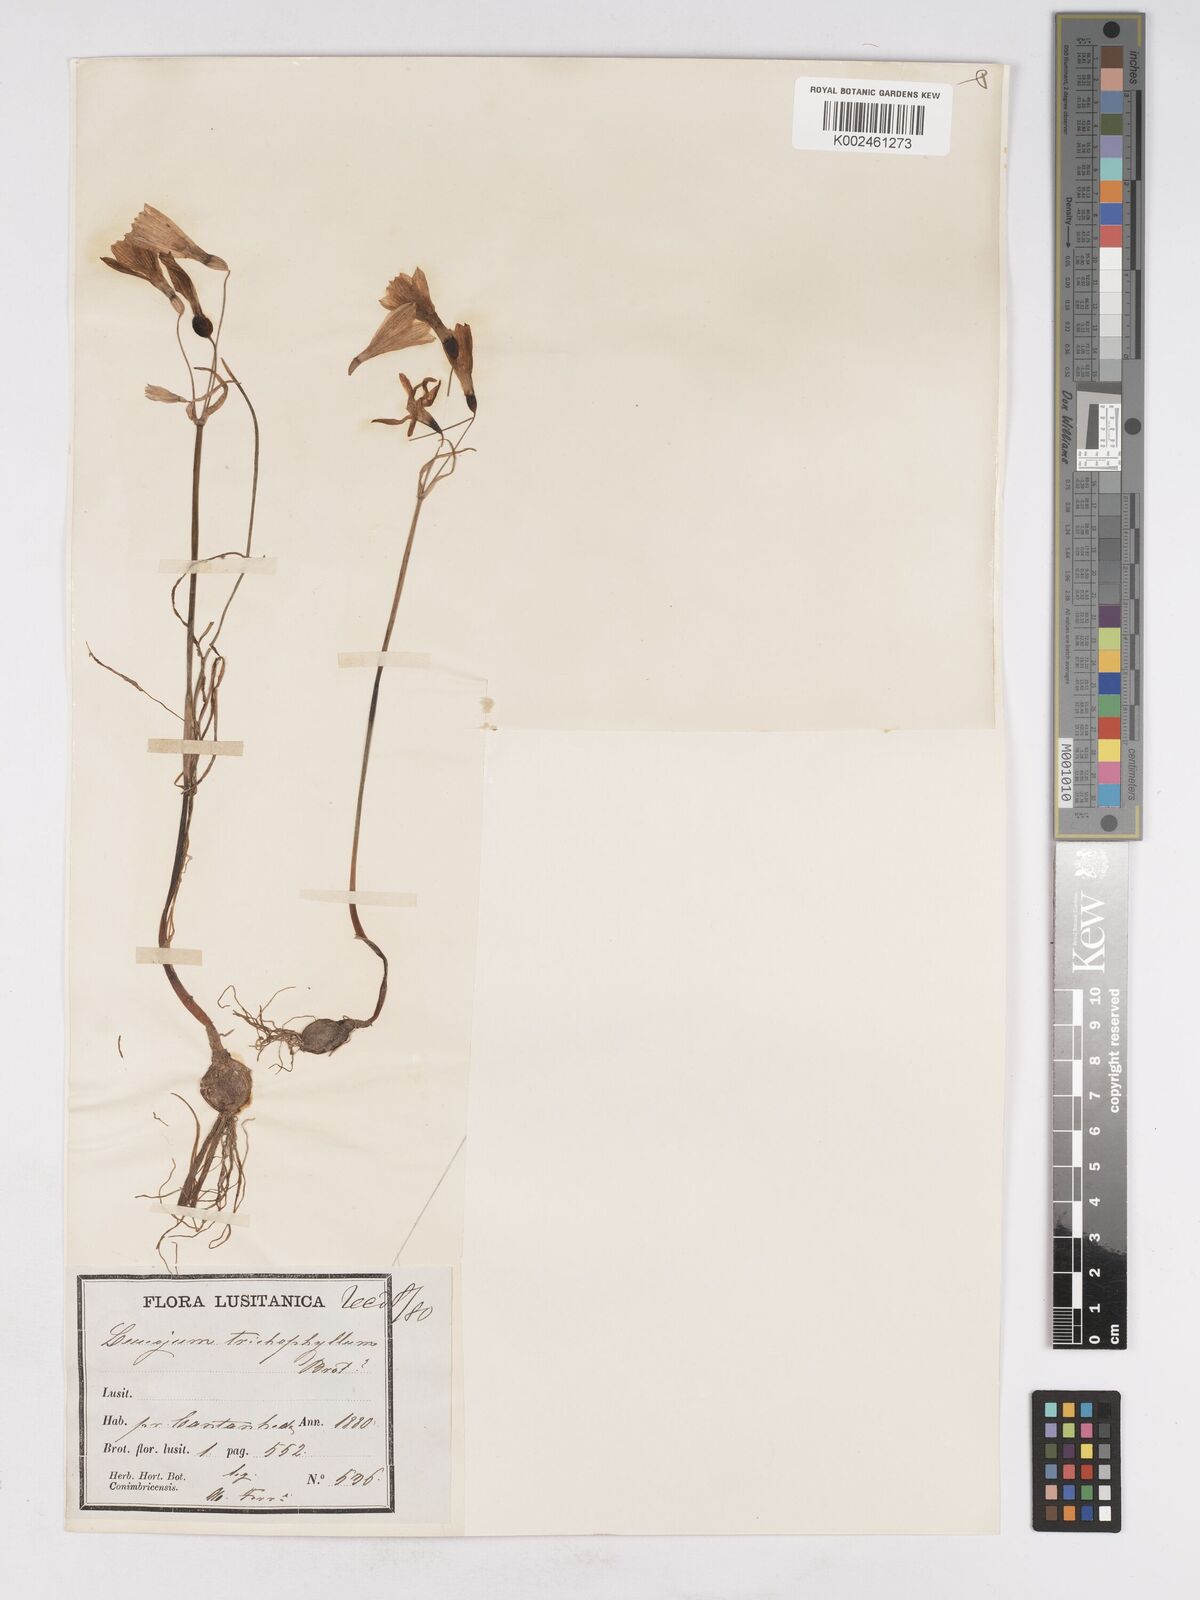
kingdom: Plantae
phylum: Tracheophyta
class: Liliopsida
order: Asparagales
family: Amaryllidaceae
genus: Acis
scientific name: Acis trichophylla
